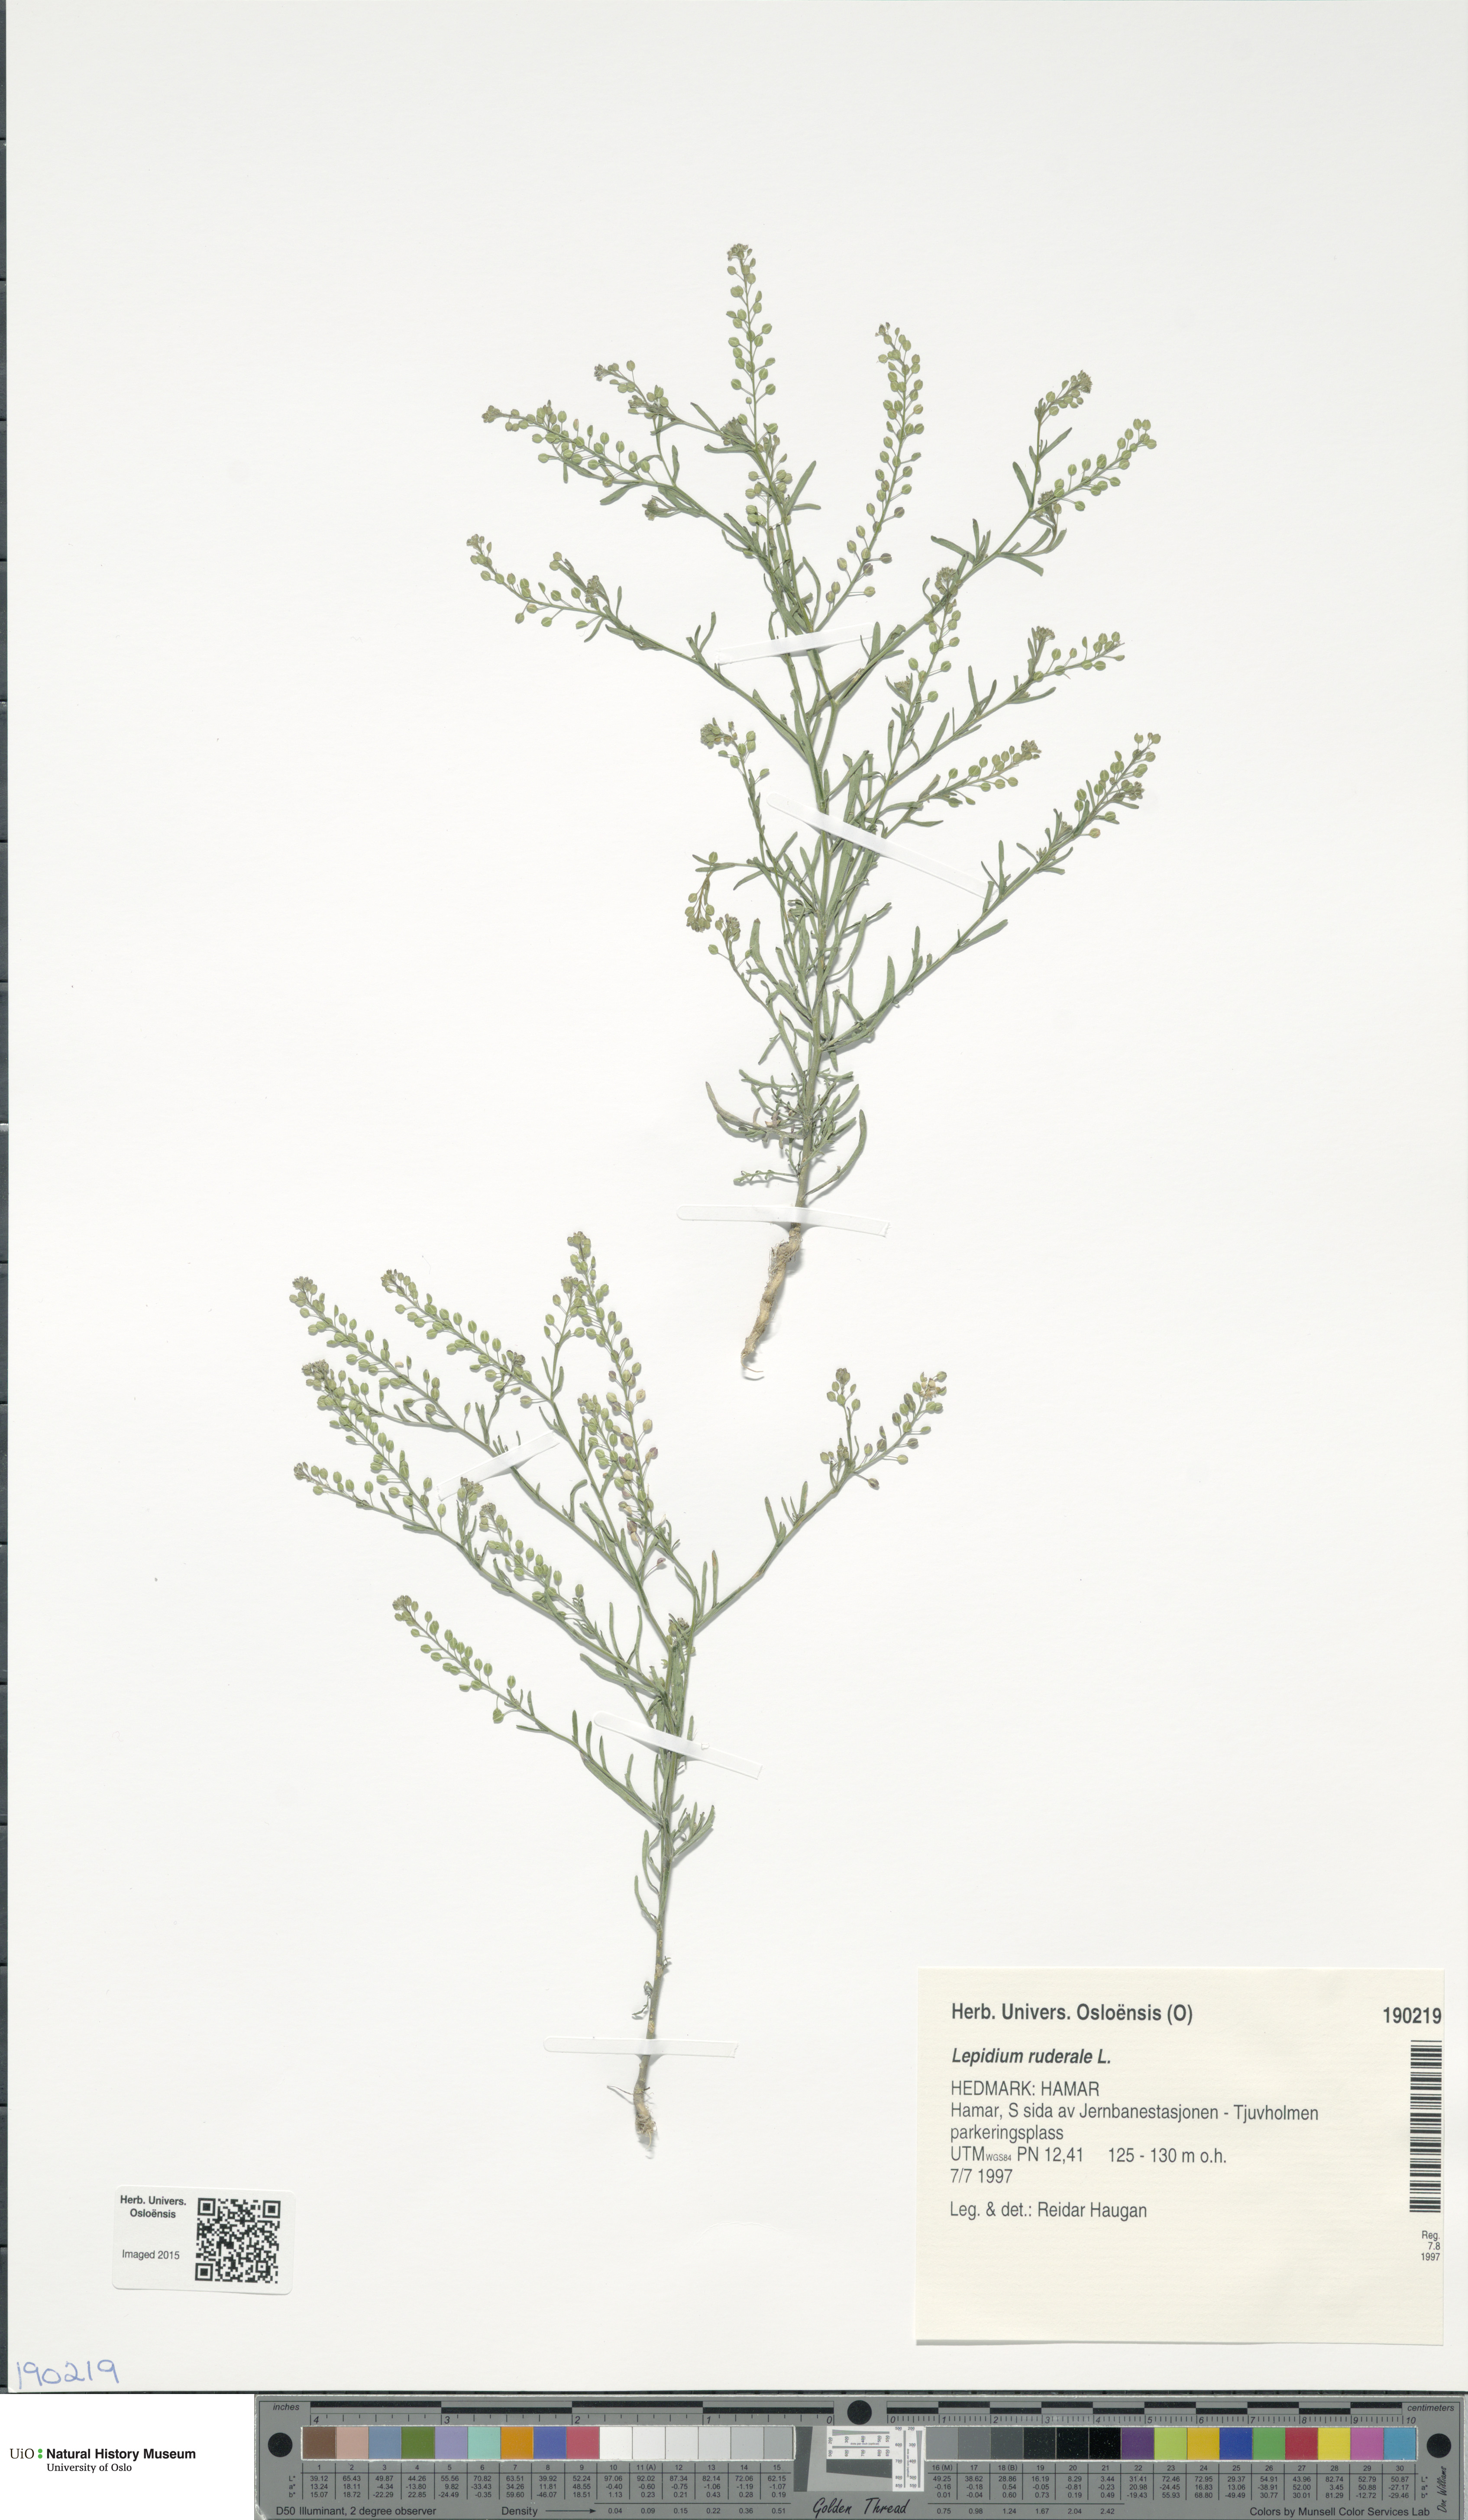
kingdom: Plantae
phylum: Tracheophyta
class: Magnoliopsida
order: Brassicales
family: Brassicaceae
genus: Lepidium
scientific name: Lepidium ruderale
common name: Narrow-leaved pepperwort
